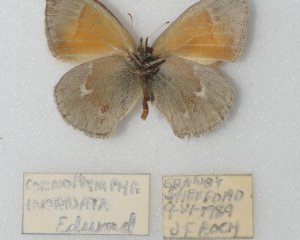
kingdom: Animalia
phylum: Arthropoda
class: Insecta
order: Lepidoptera
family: Nymphalidae
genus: Coenonympha
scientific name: Coenonympha tullia
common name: Large Heath
